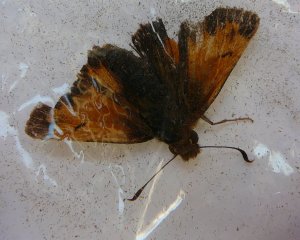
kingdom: Animalia
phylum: Arthropoda
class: Insecta
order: Lepidoptera
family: Hesperiidae
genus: Lon
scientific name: Lon hobomok
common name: Hobomok Skipper
